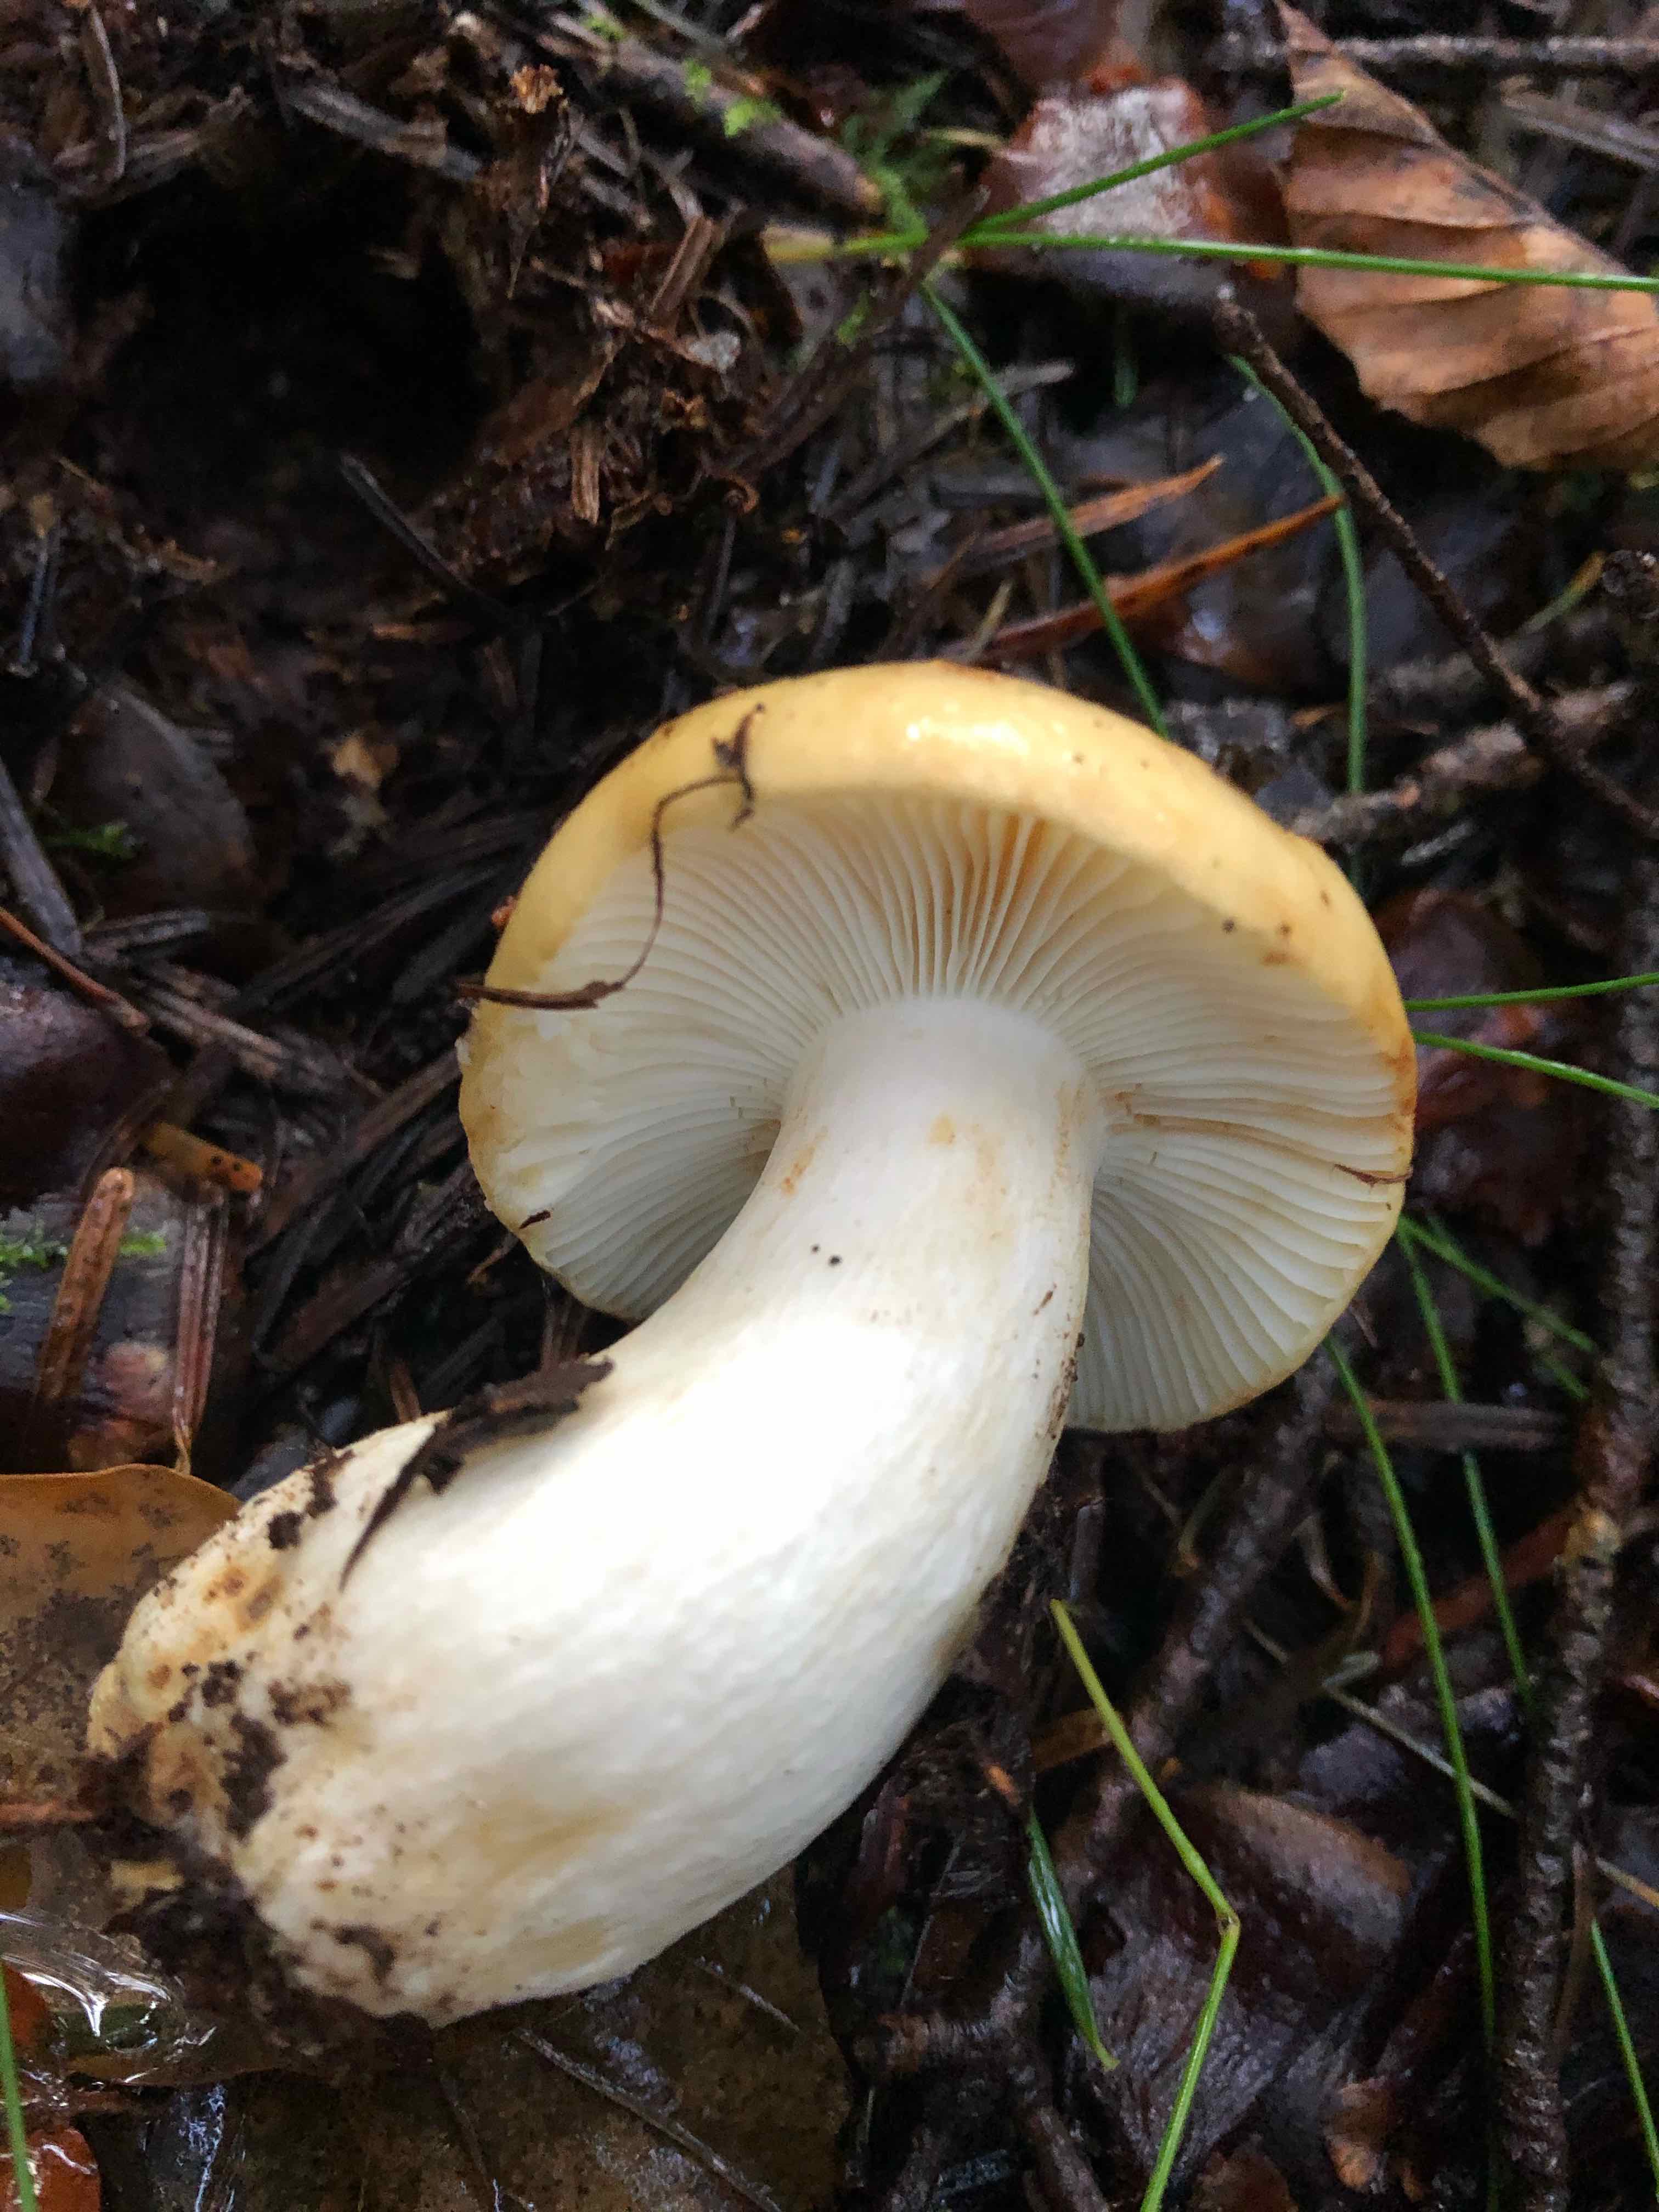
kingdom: Fungi
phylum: Basidiomycota
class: Agaricomycetes
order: Russulales
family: Russulaceae
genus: Russula
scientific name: Russula ochroleuca
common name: okkergul skørhat
